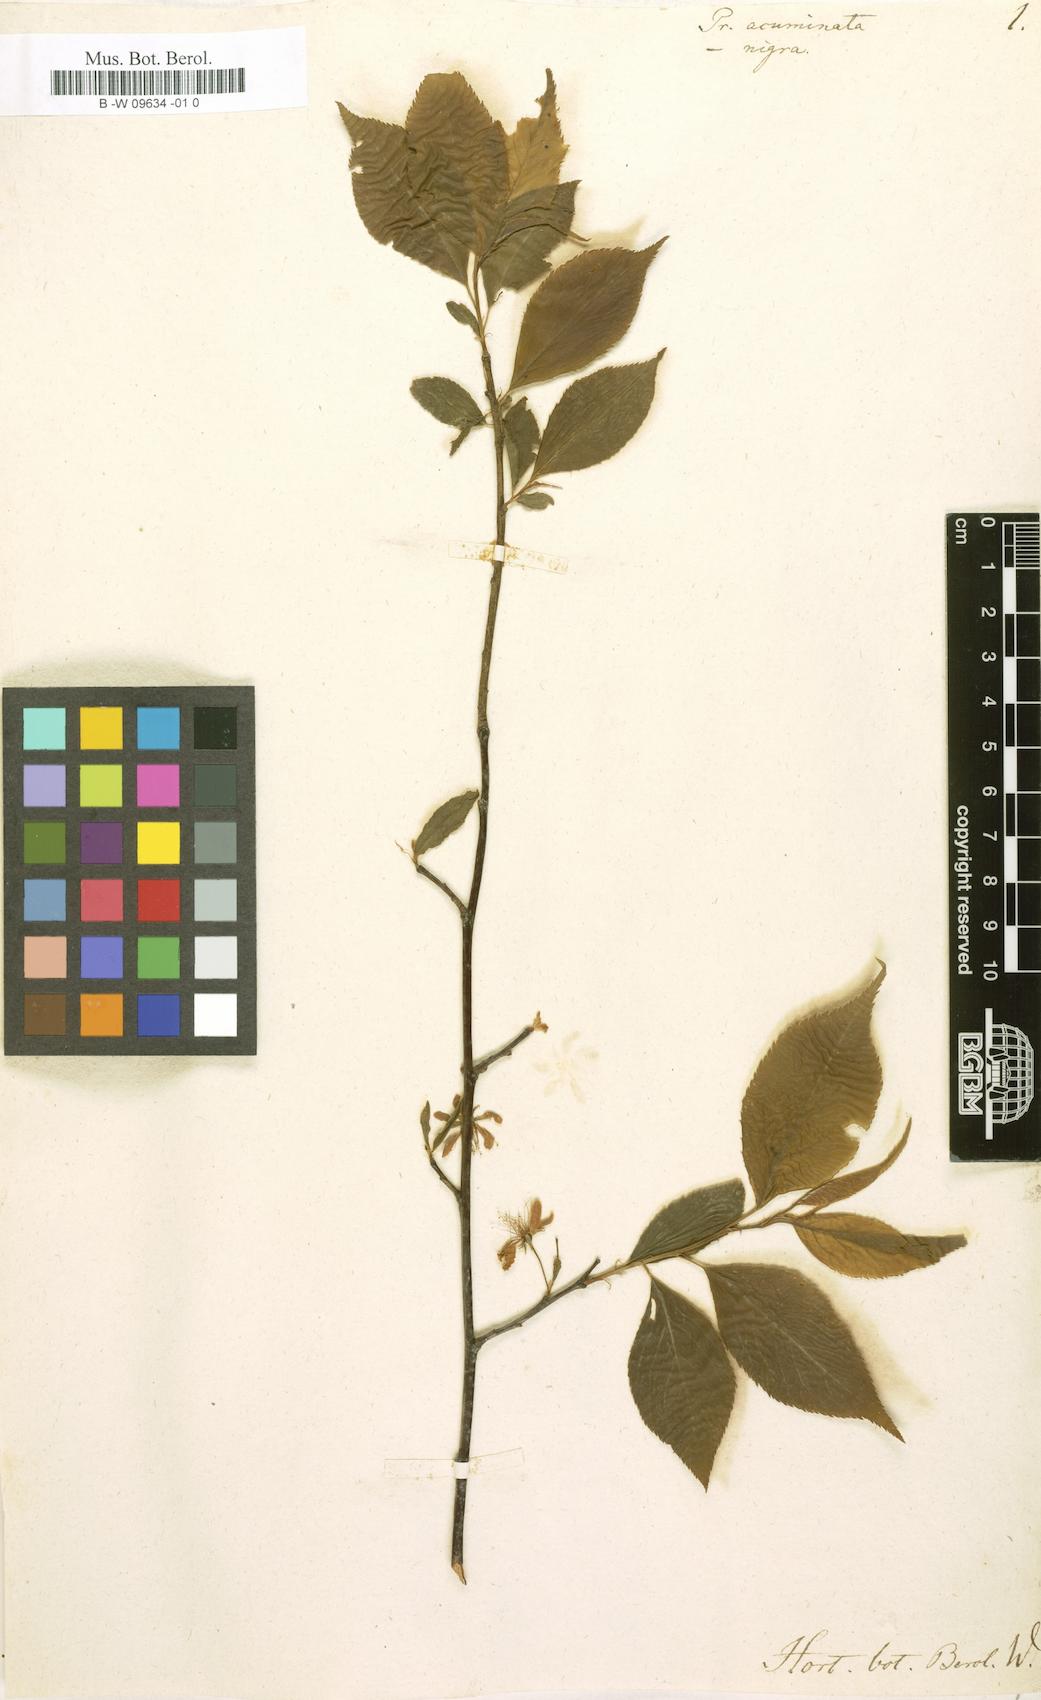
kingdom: Plantae
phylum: Tracheophyta
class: Magnoliopsida
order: Rosales
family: Rosaceae
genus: Prunus
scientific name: Prunus acuminata
